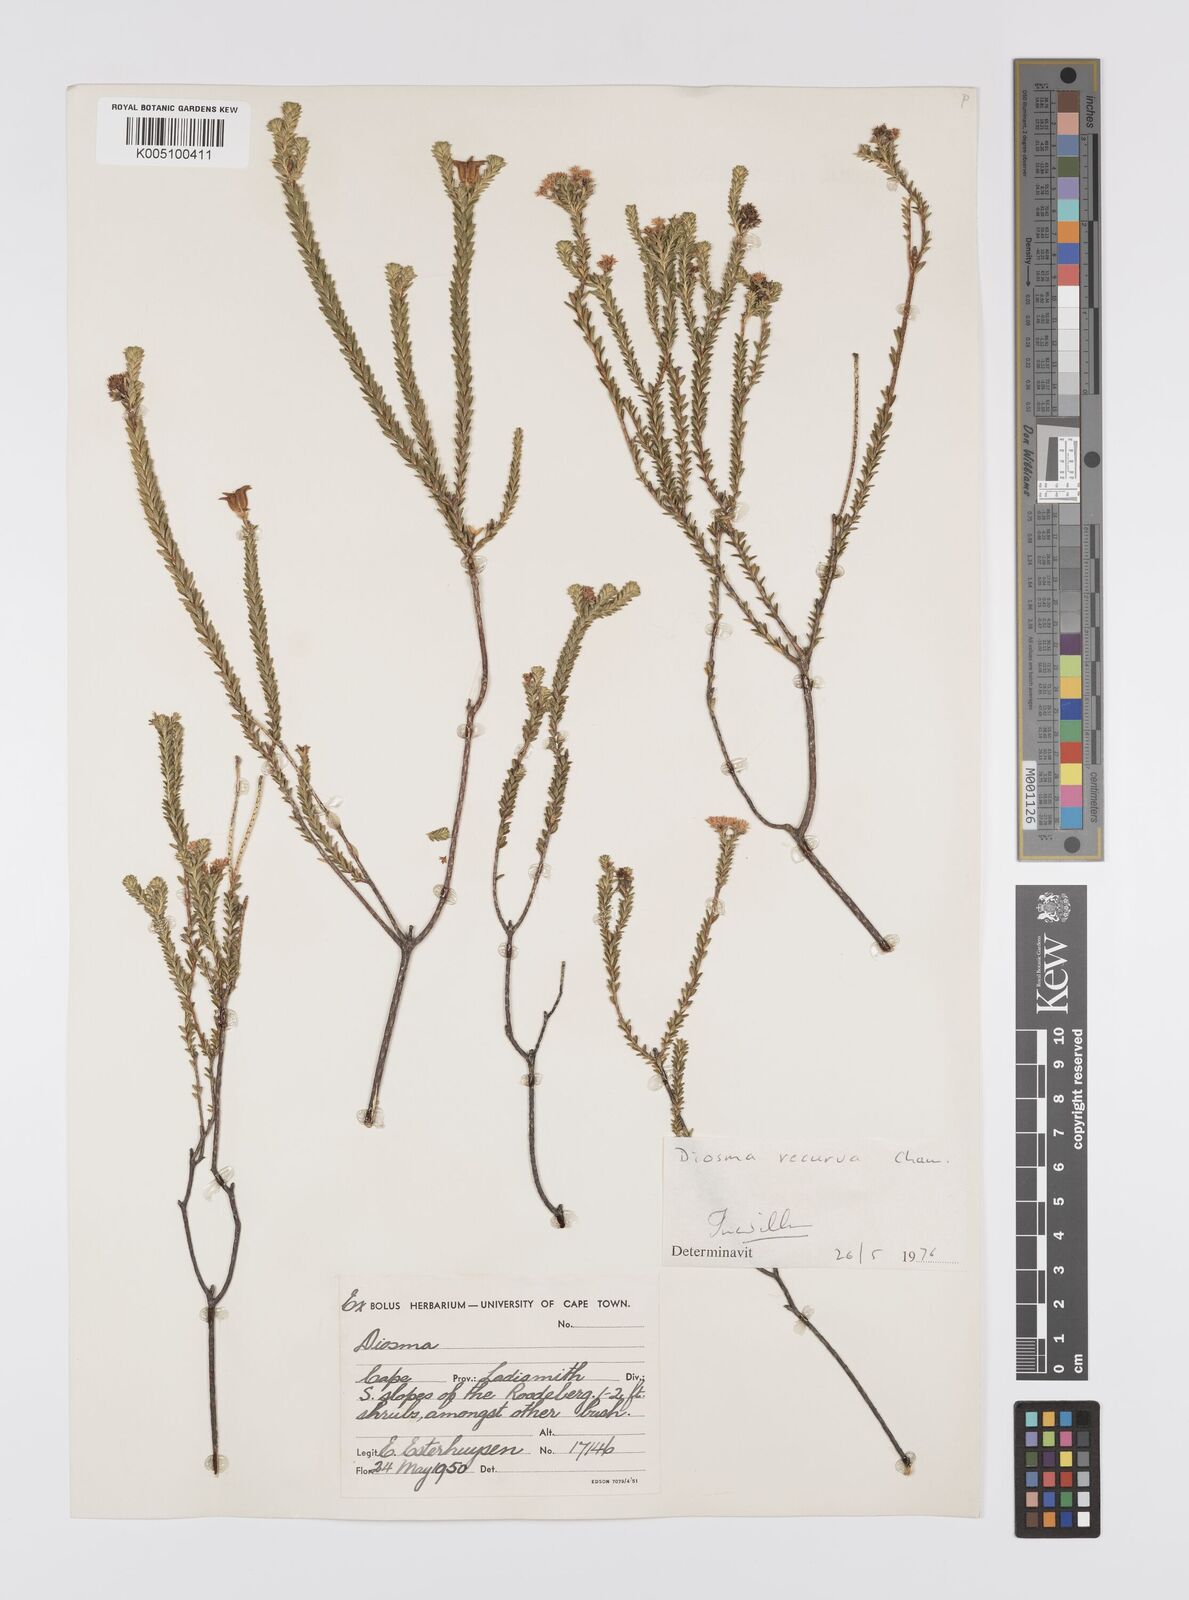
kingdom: Plantae
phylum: Tracheophyta
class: Magnoliopsida
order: Sapindales
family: Rutaceae
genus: Diosma
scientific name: Diosma recurva
